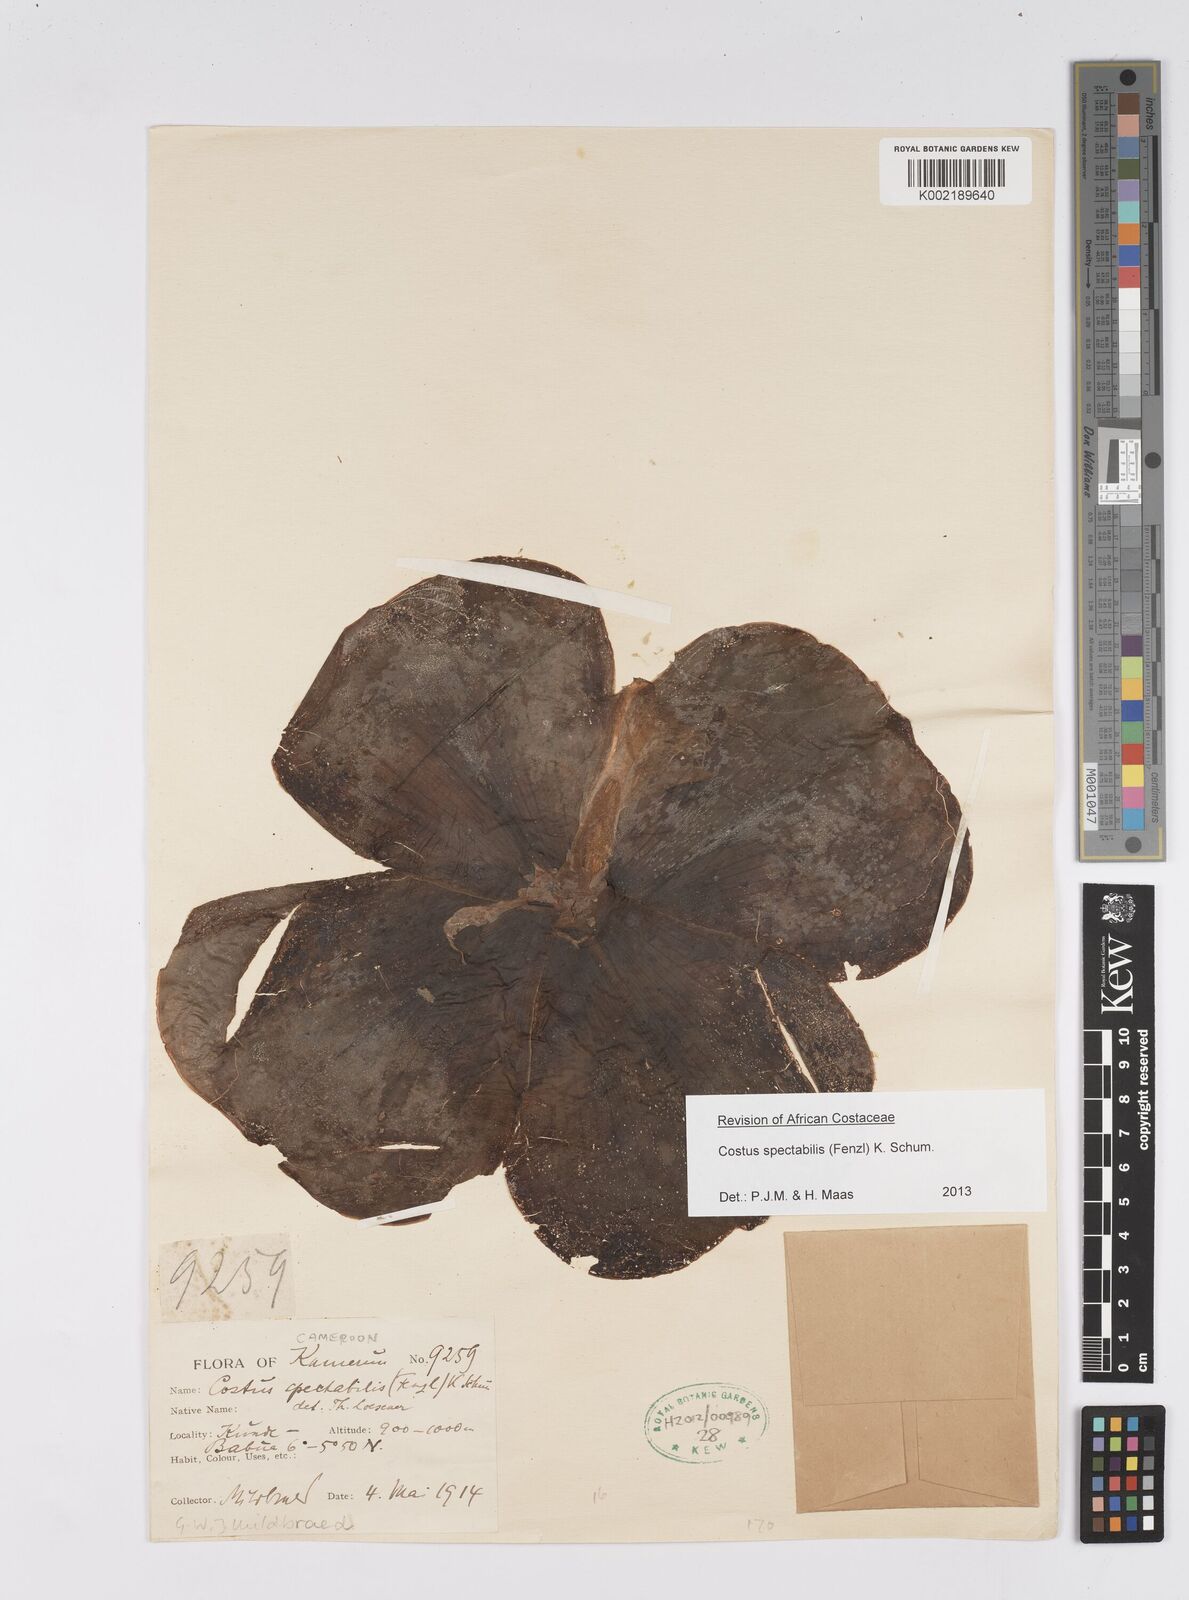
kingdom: Plantae
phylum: Tracheophyta
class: Liliopsida
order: Zingiberales
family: Costaceae
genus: Costus
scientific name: Costus spectabilis
